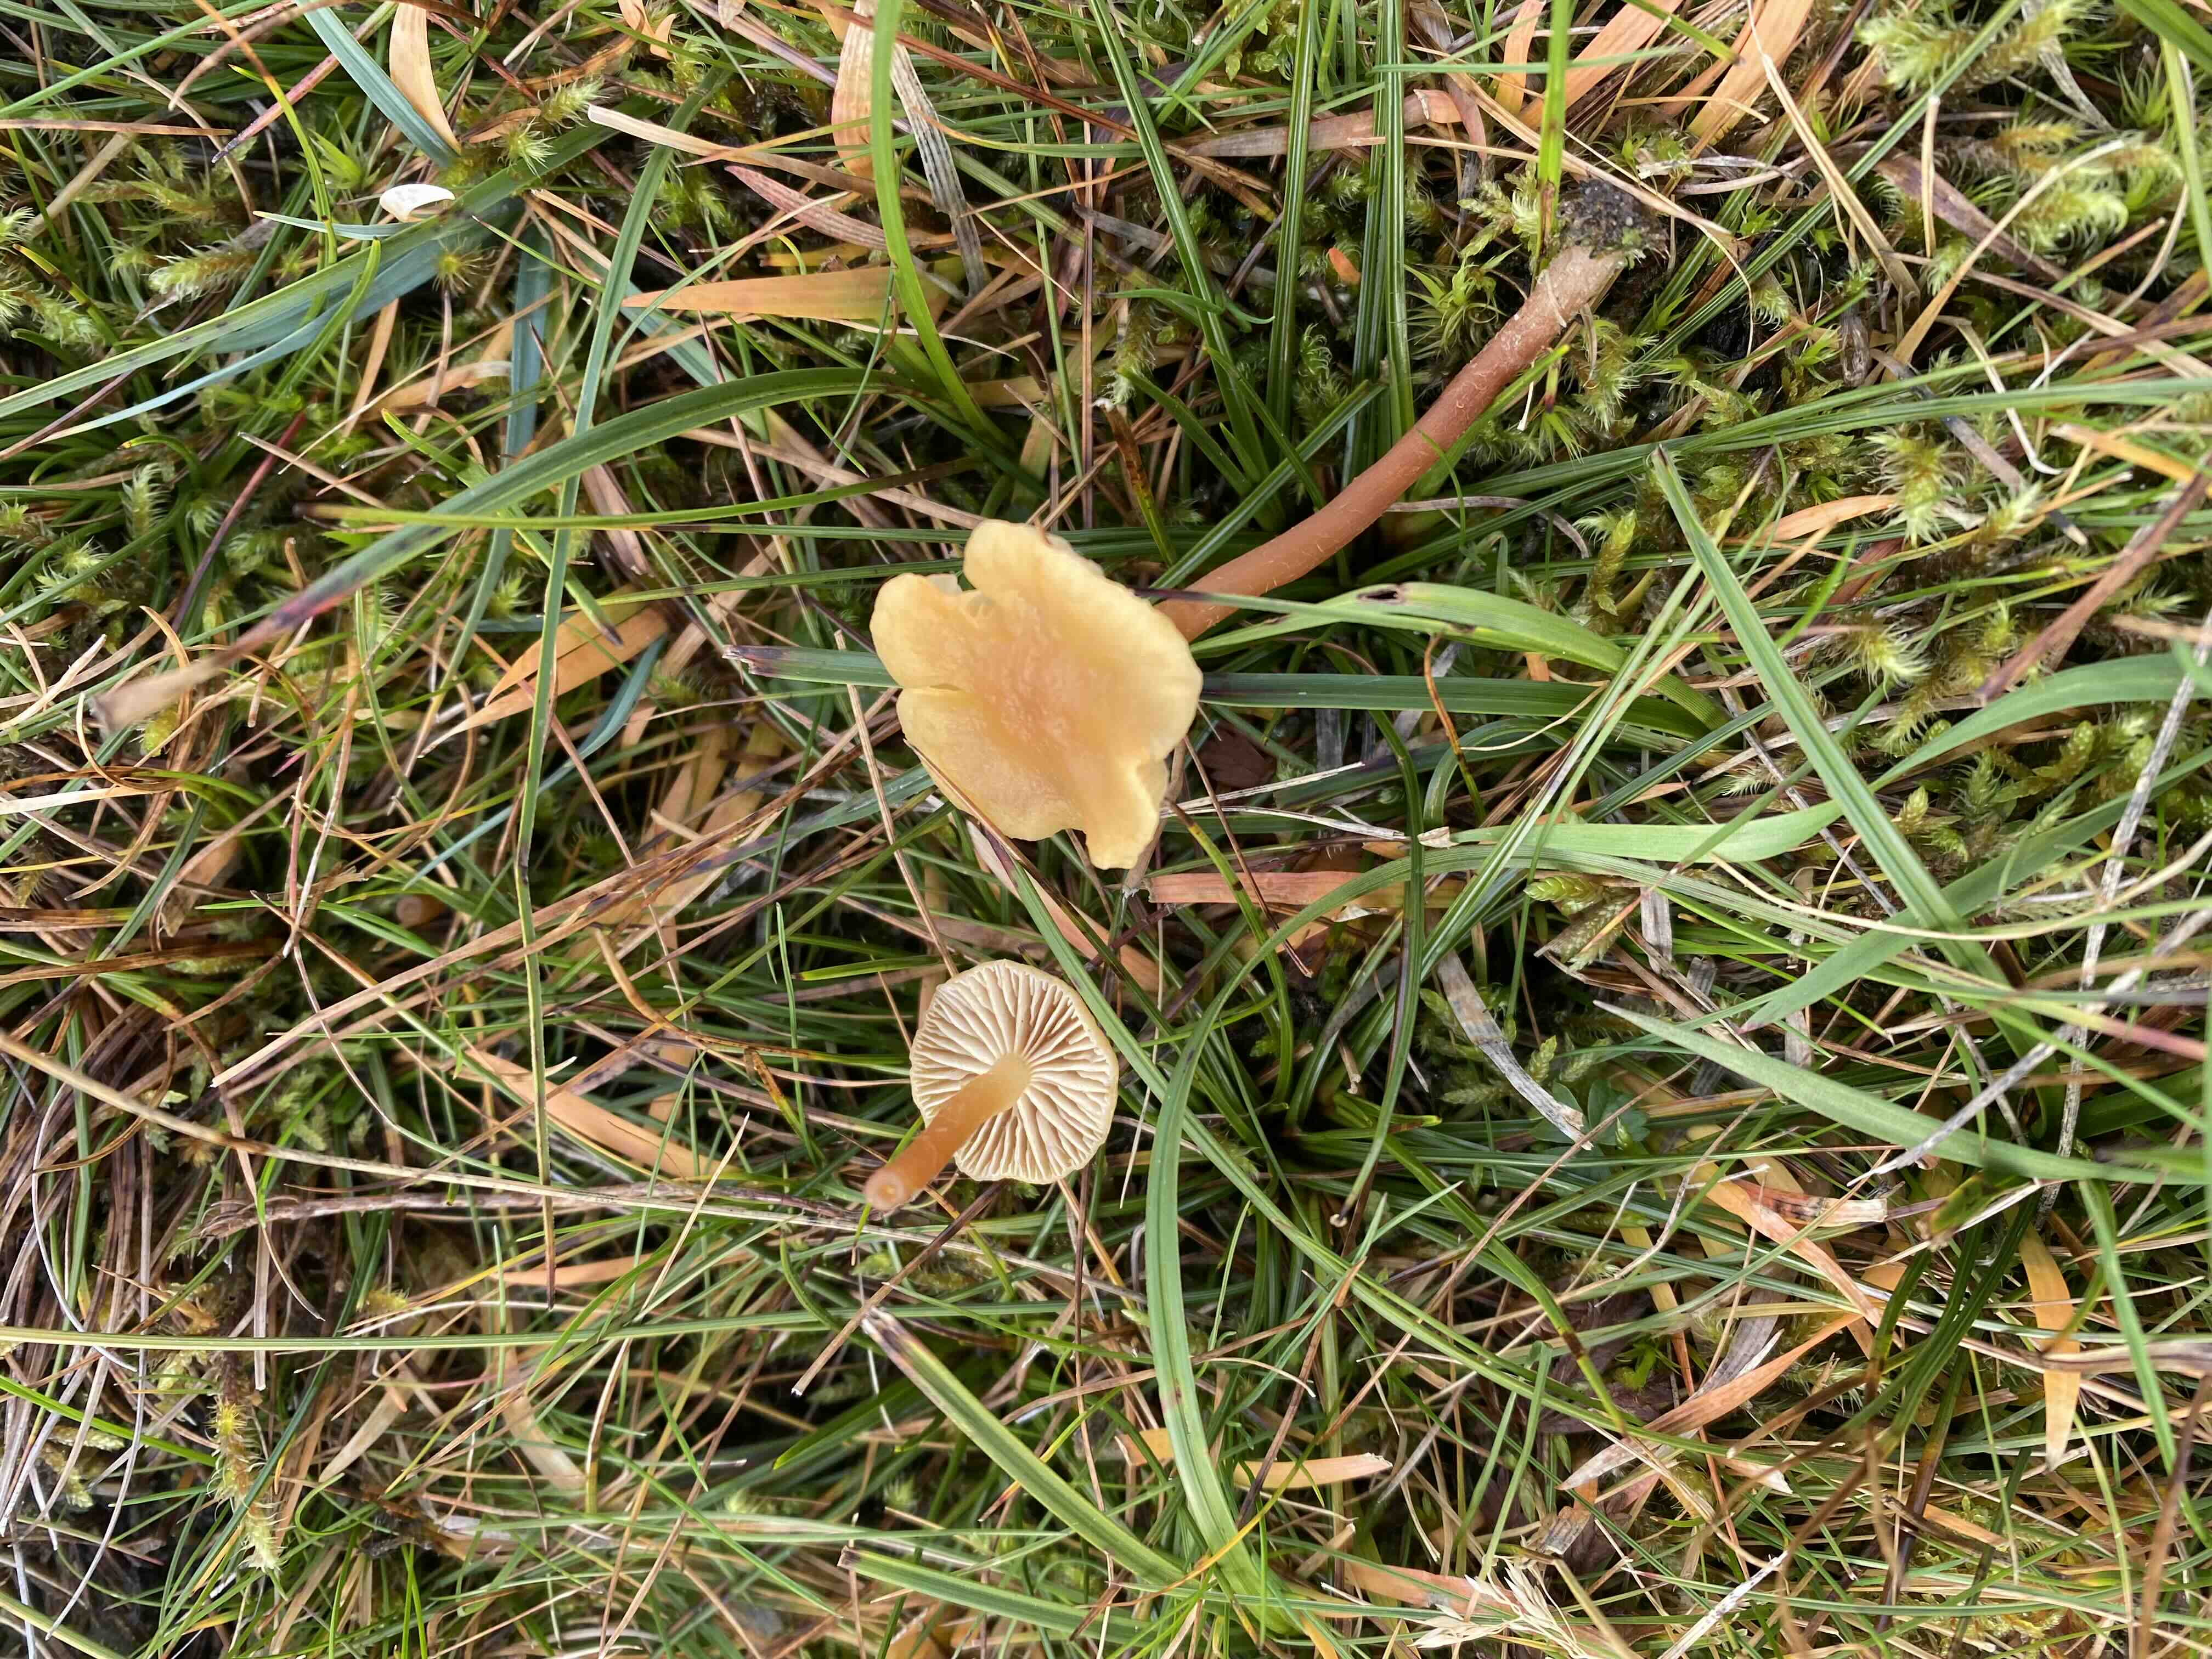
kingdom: Fungi
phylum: Basidiomycota
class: Agaricomycetes
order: Agaricales
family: Strophariaceae
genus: Hypholoma
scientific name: Hypholoma
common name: svovlhat
